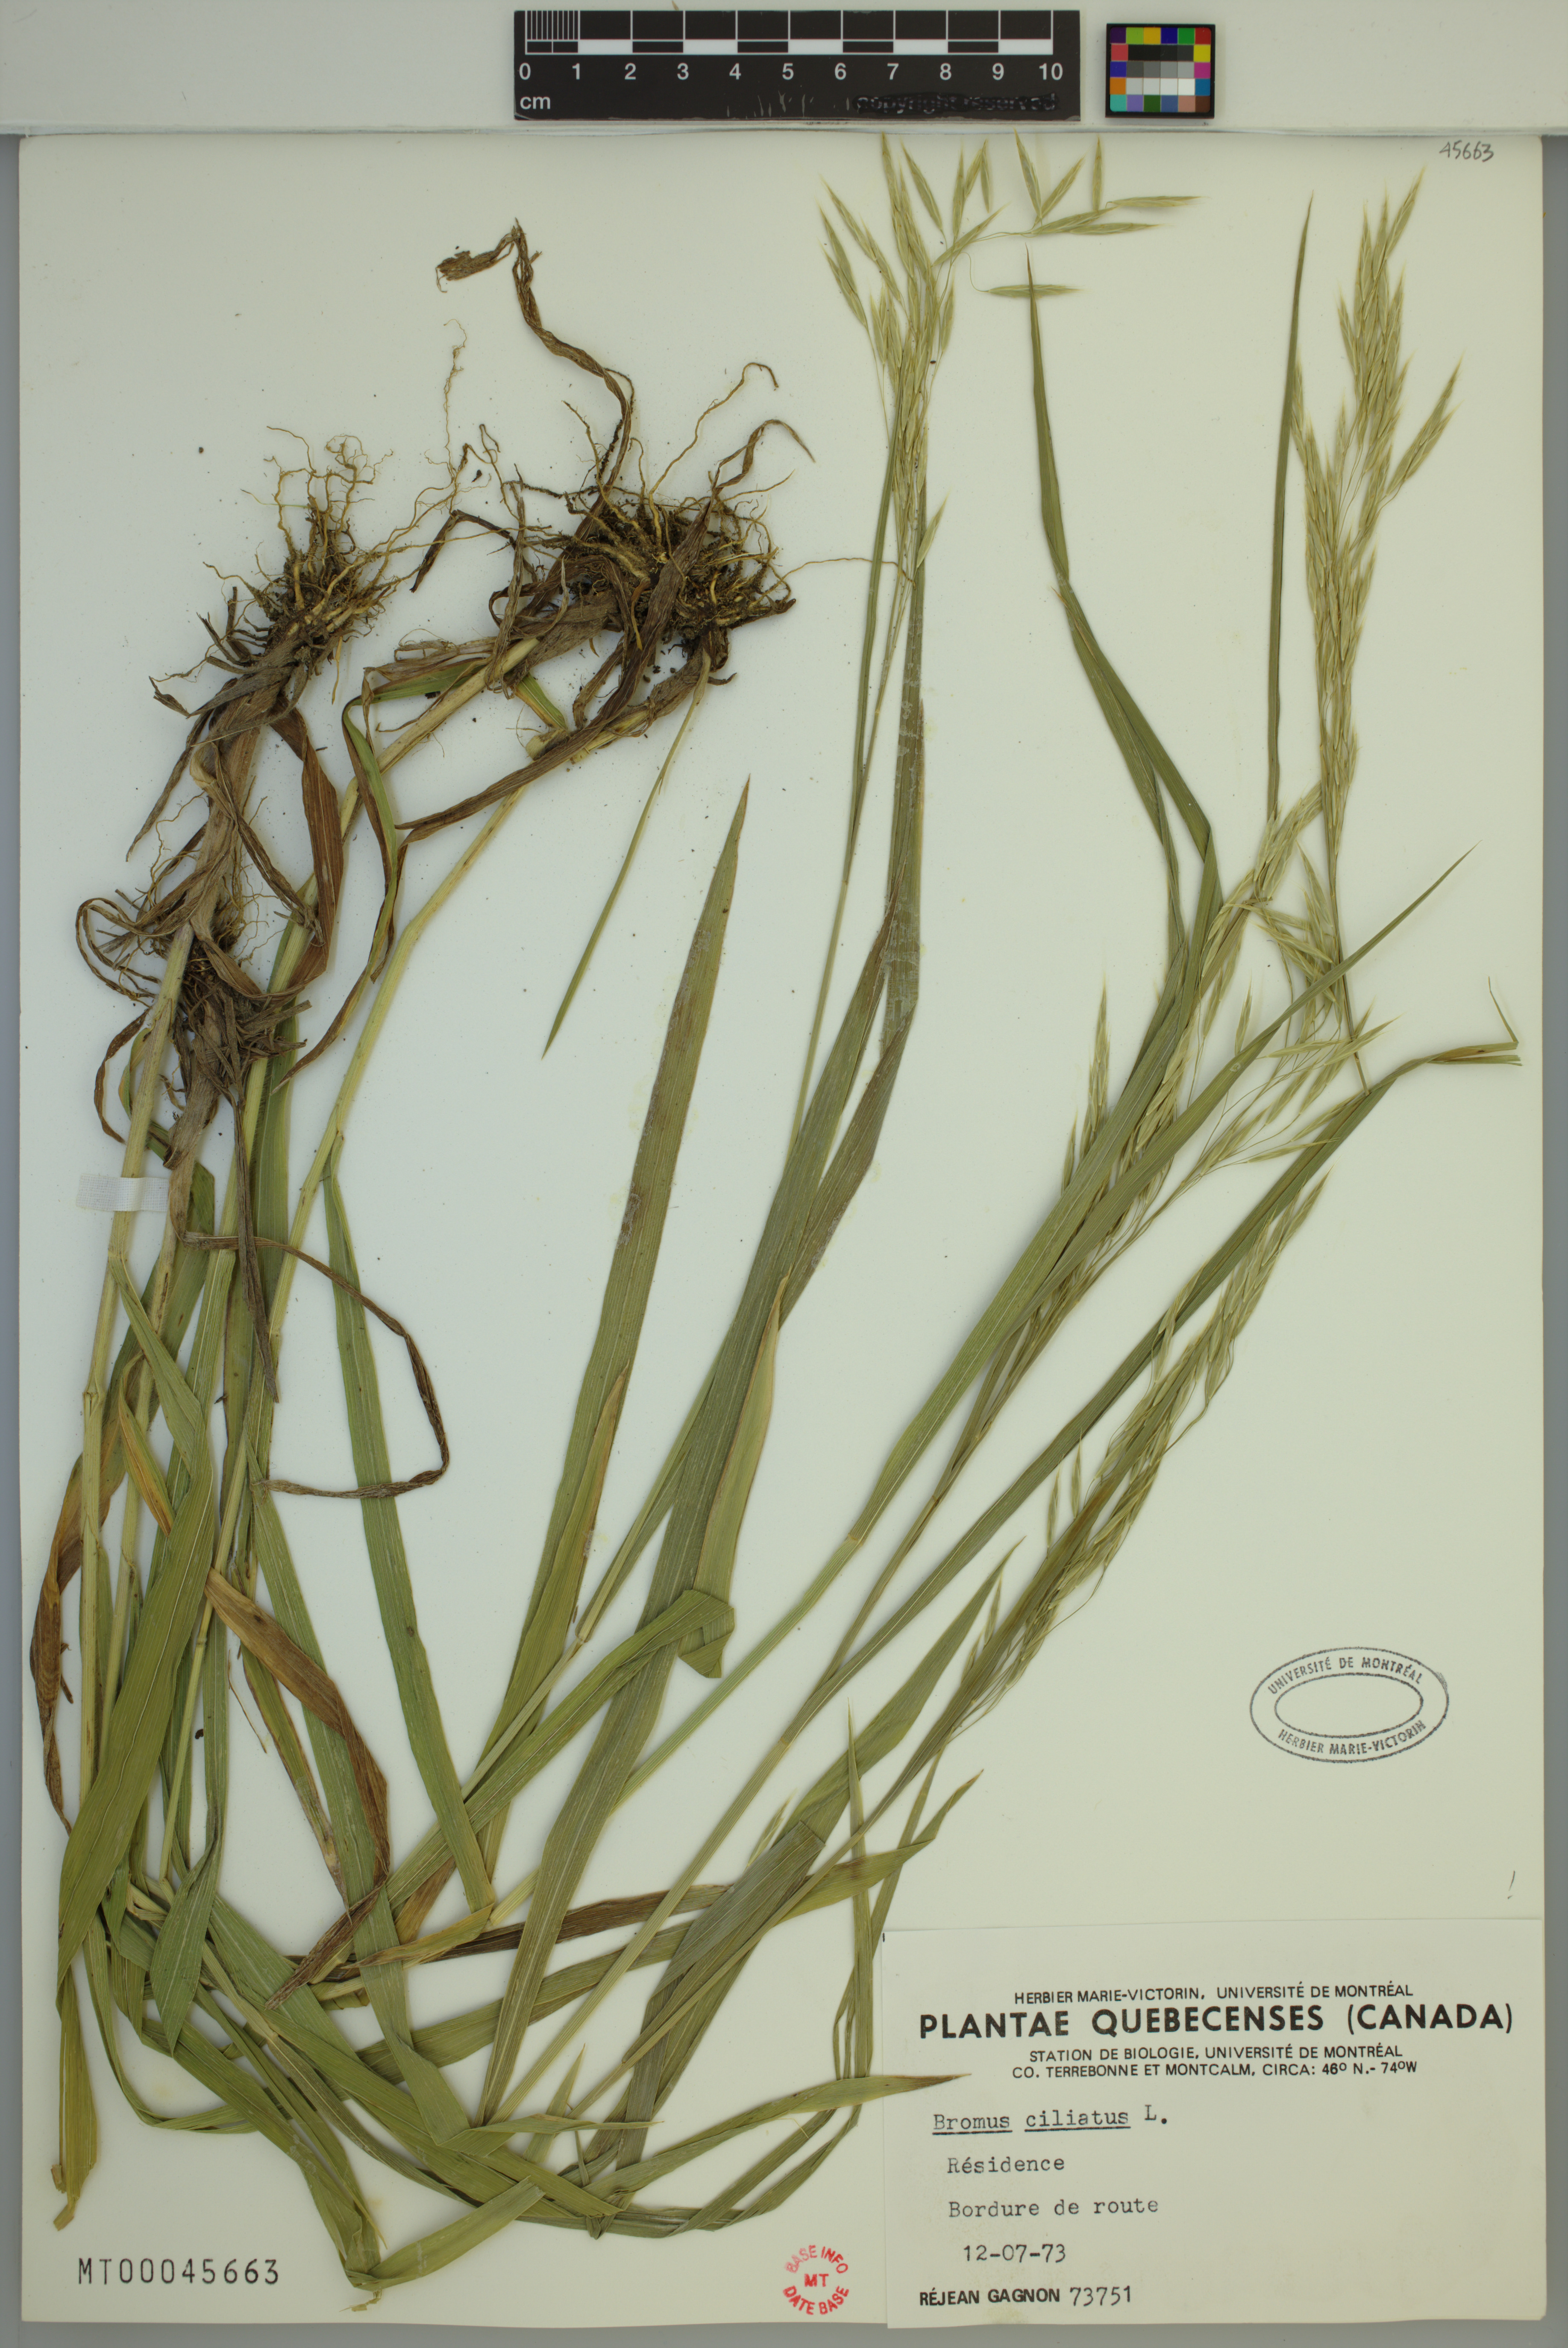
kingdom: Plantae
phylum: Tracheophyta
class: Liliopsida
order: Poales
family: Poaceae
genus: Bromus
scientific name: Bromus ciliatus
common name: Fringe brome
